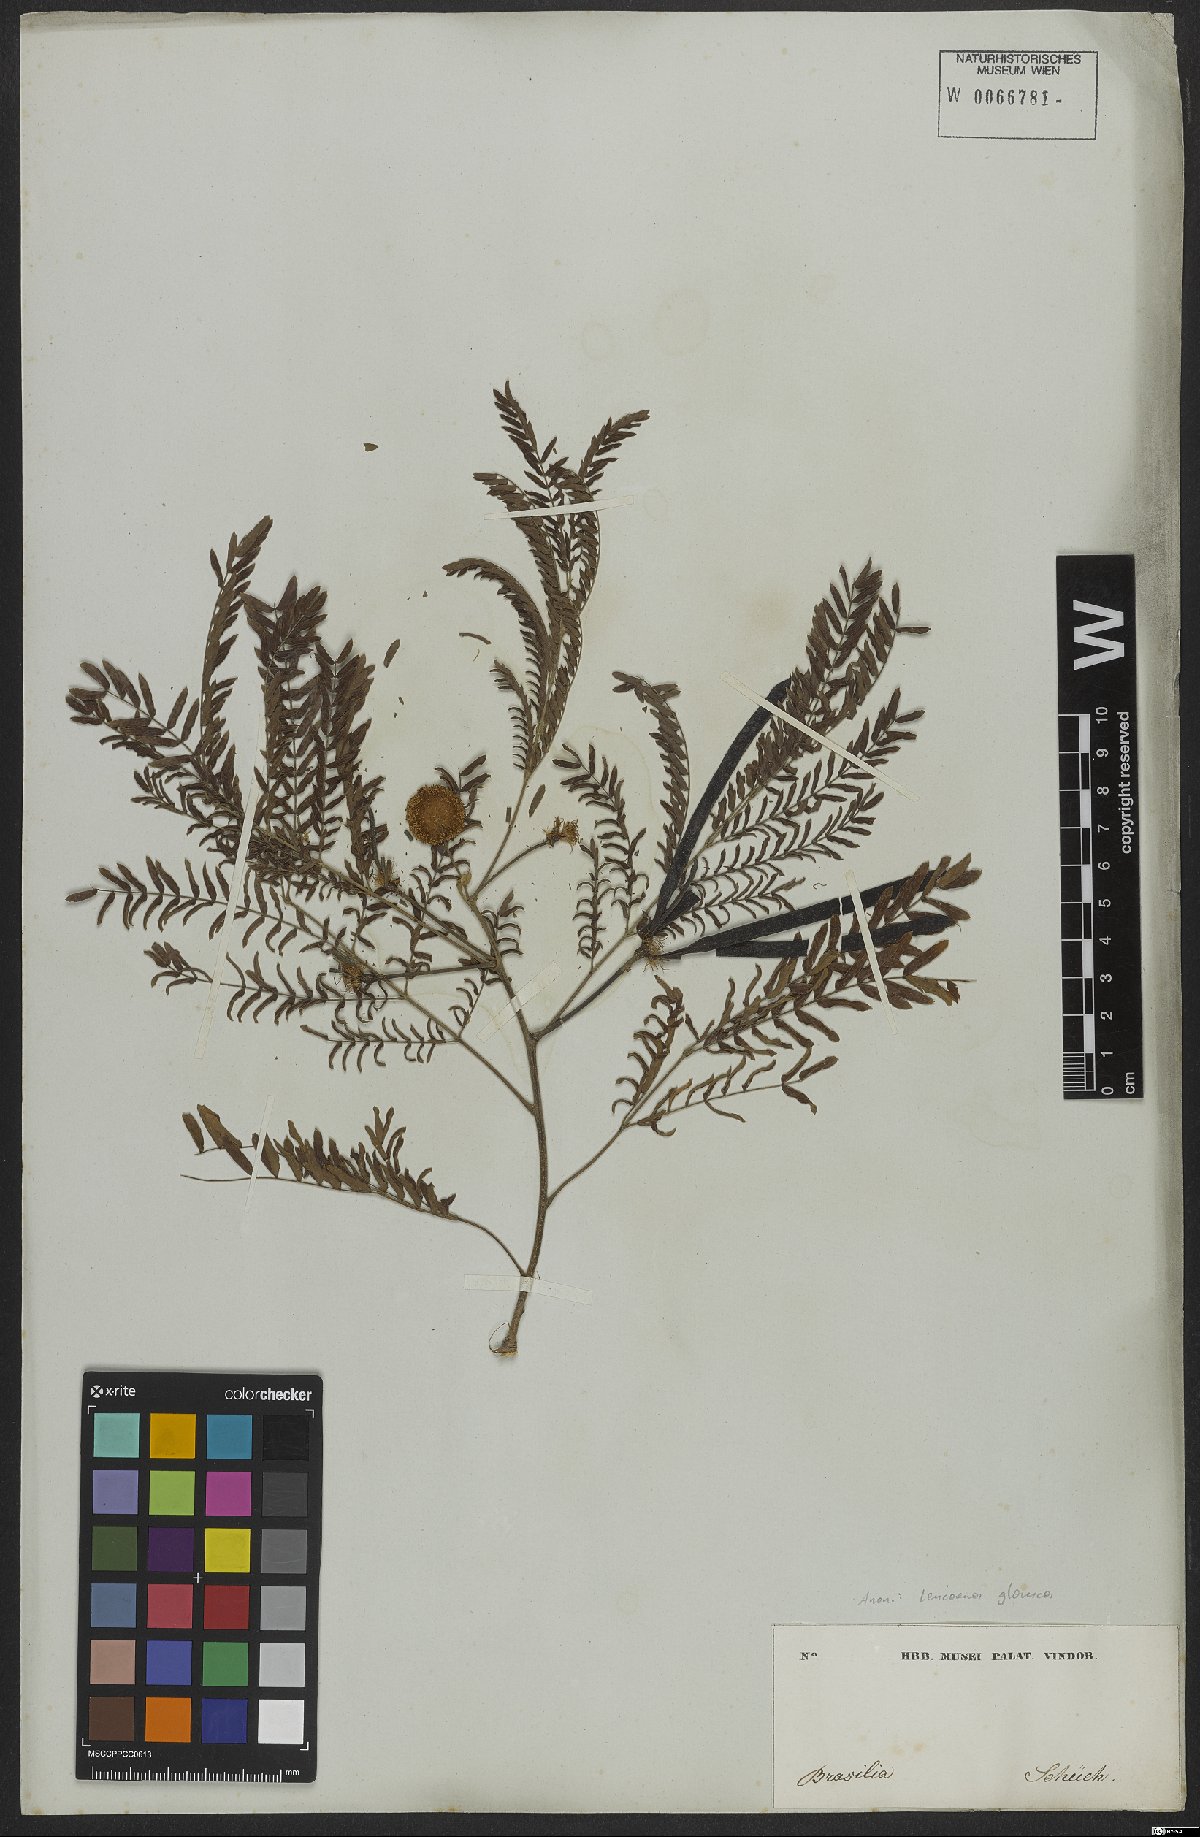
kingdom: Plantae
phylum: Tracheophyta
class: Magnoliopsida
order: Fabales
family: Fabaceae
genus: Acaciella
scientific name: Acaciella glauca
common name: Redwood
